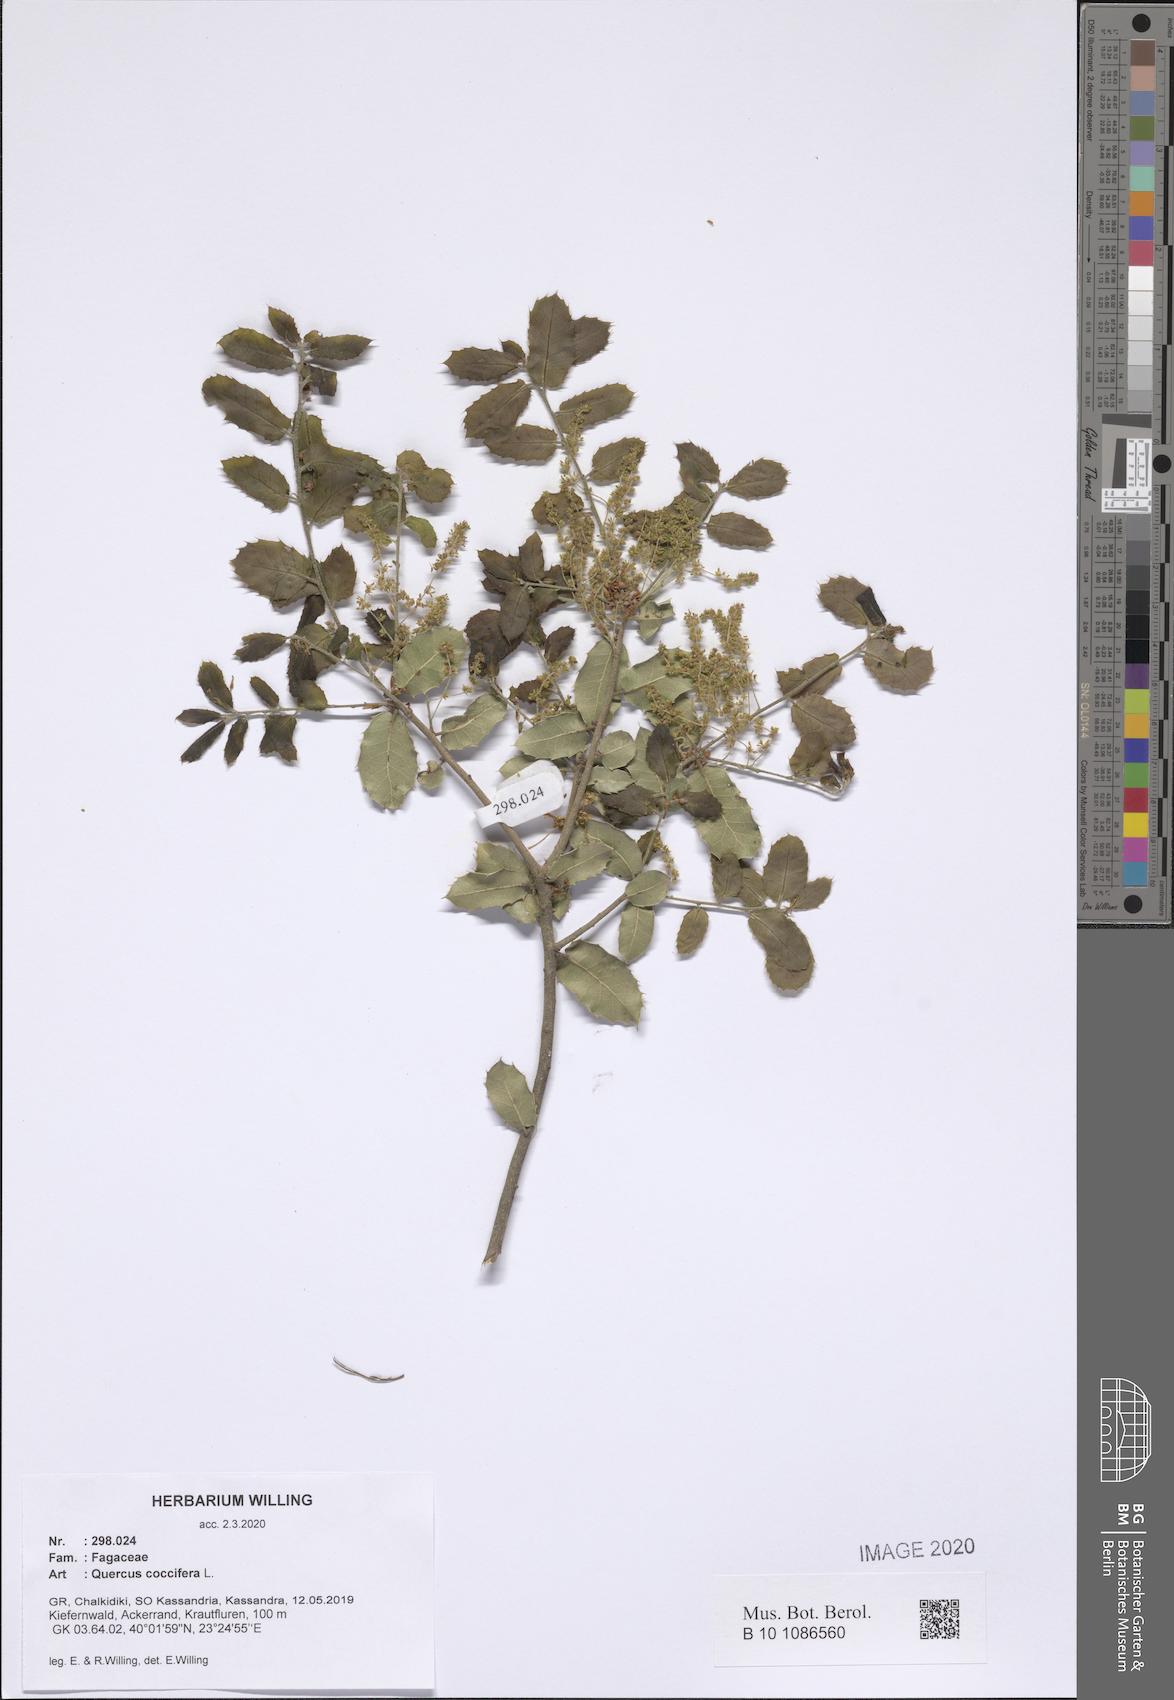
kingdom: Plantae
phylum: Tracheophyta
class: Magnoliopsida
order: Fagales
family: Fagaceae
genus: Quercus
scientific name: Quercus coccifera
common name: Kermes oak
